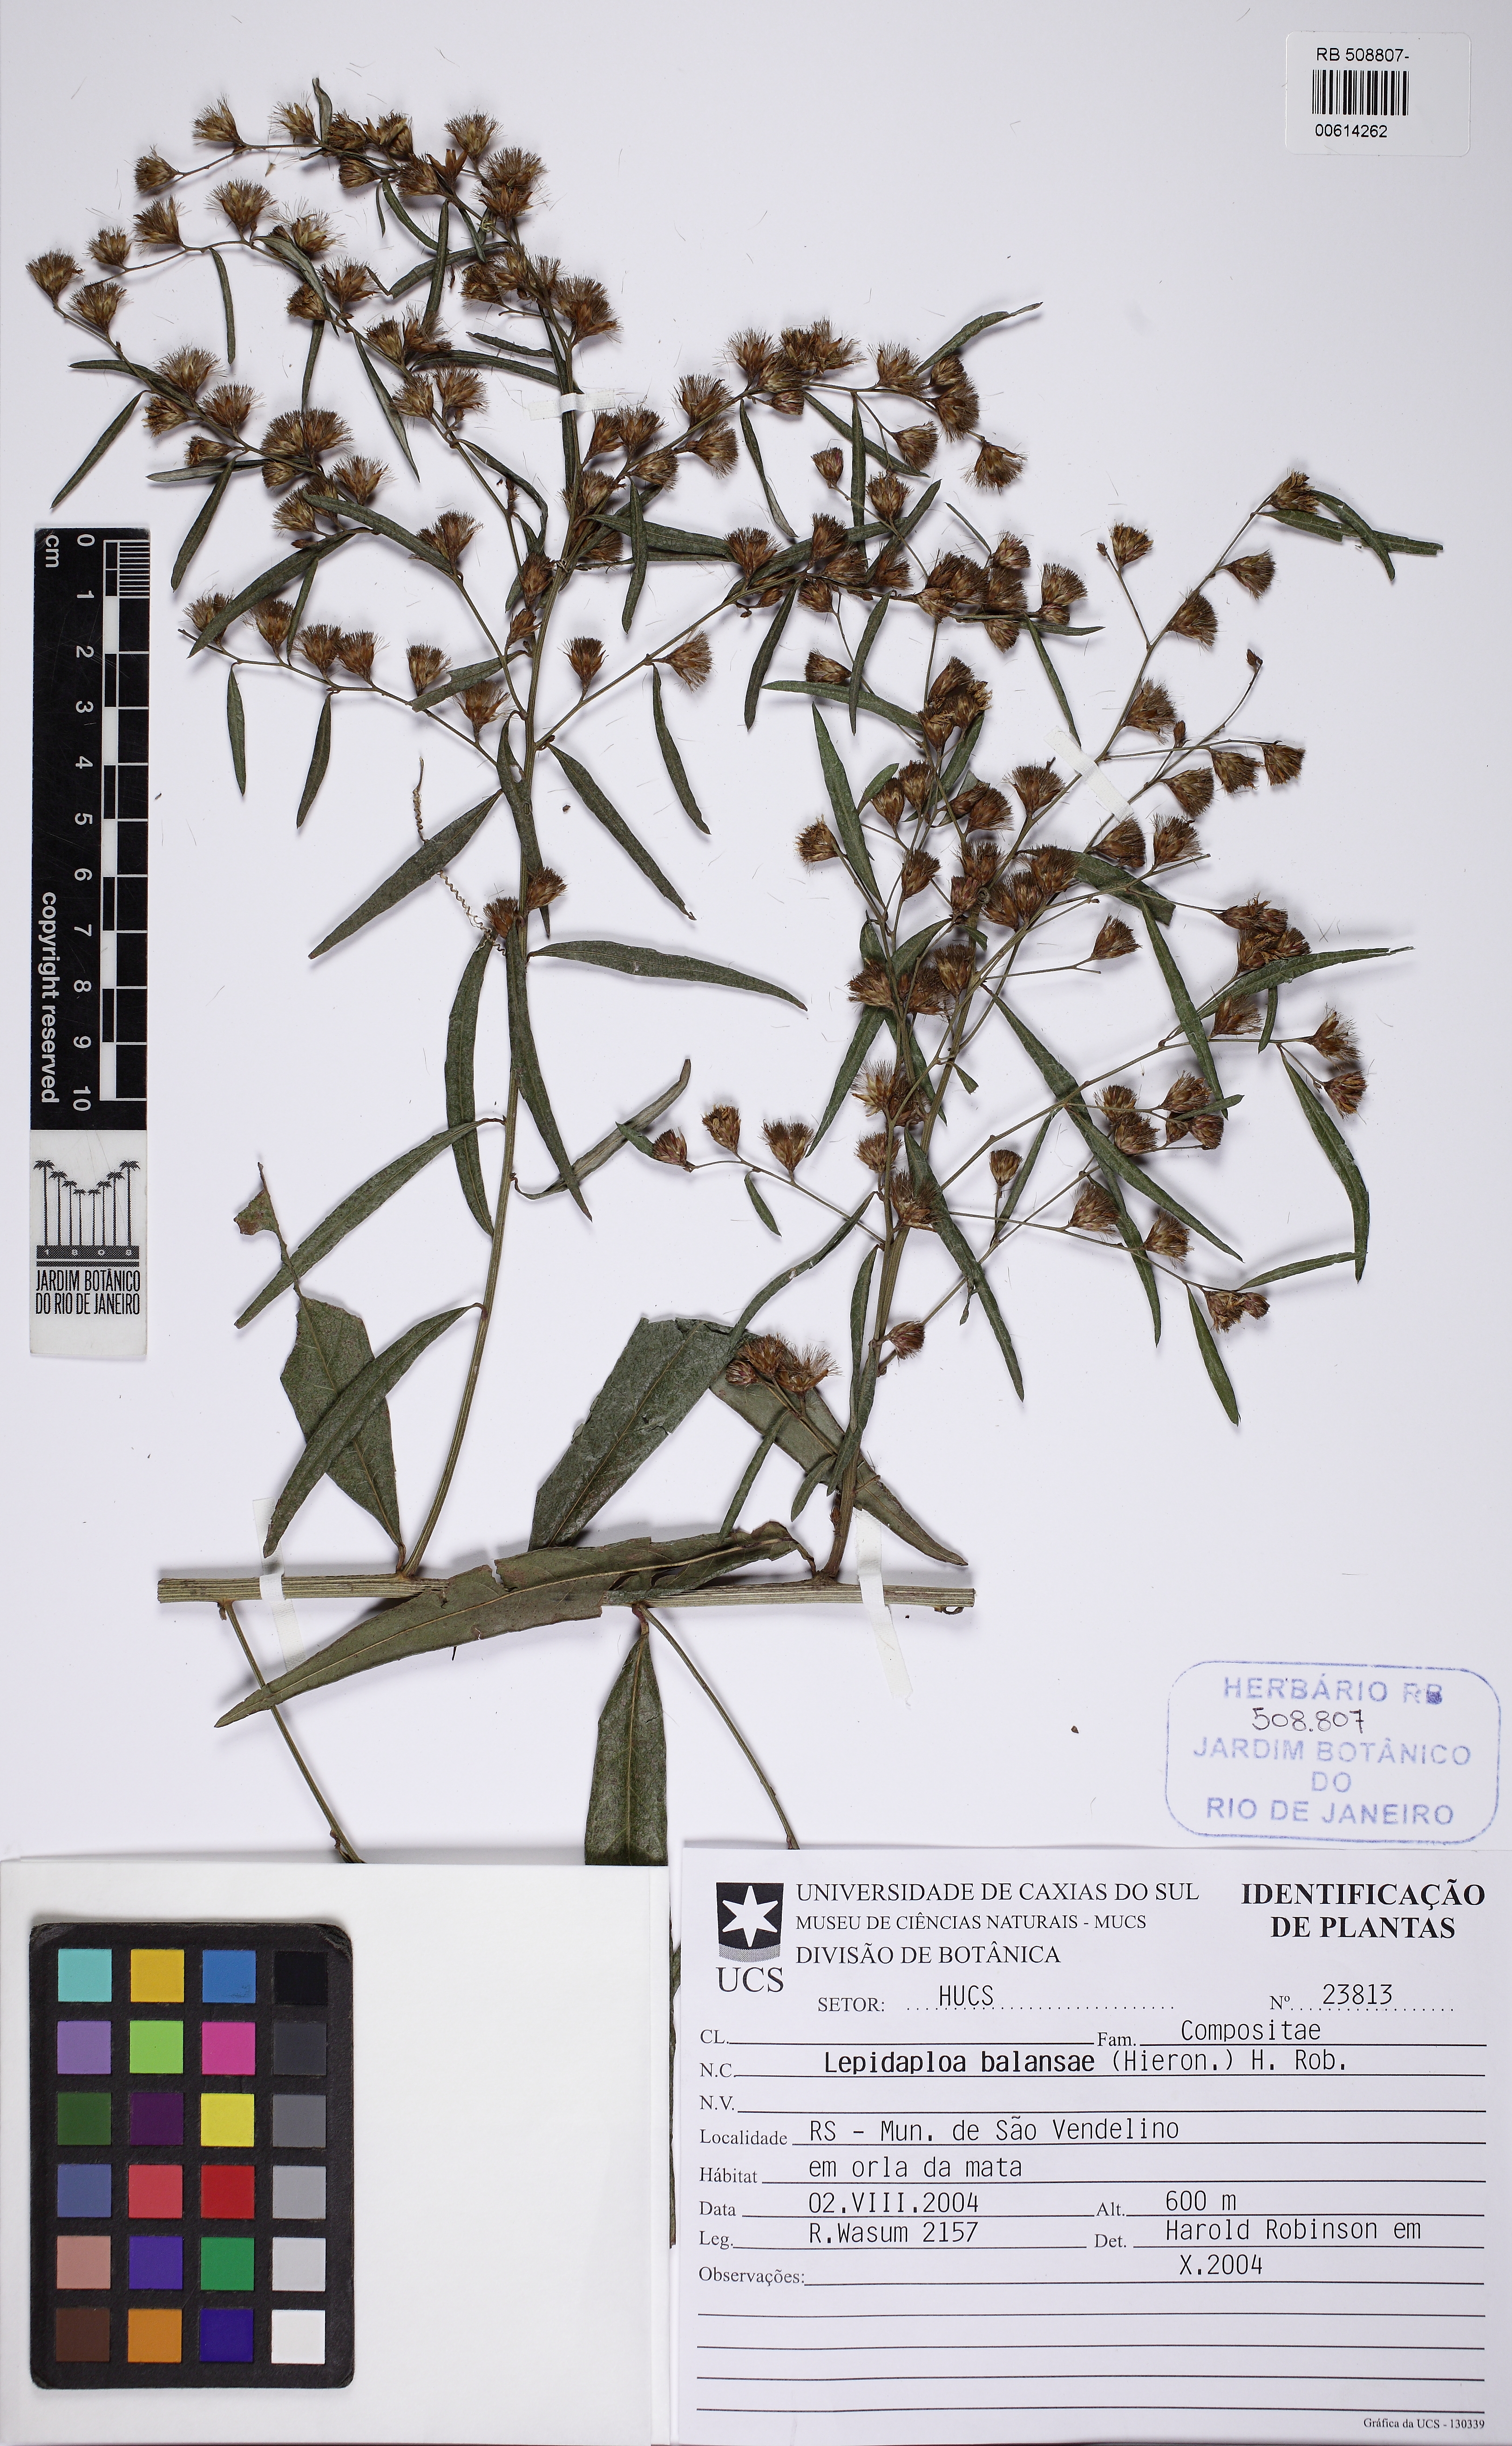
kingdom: Plantae
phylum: Tracheophyta
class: Magnoliopsida
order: Asterales
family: Asteraceae
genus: Lepidaploa
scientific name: Lepidaploa balansae
